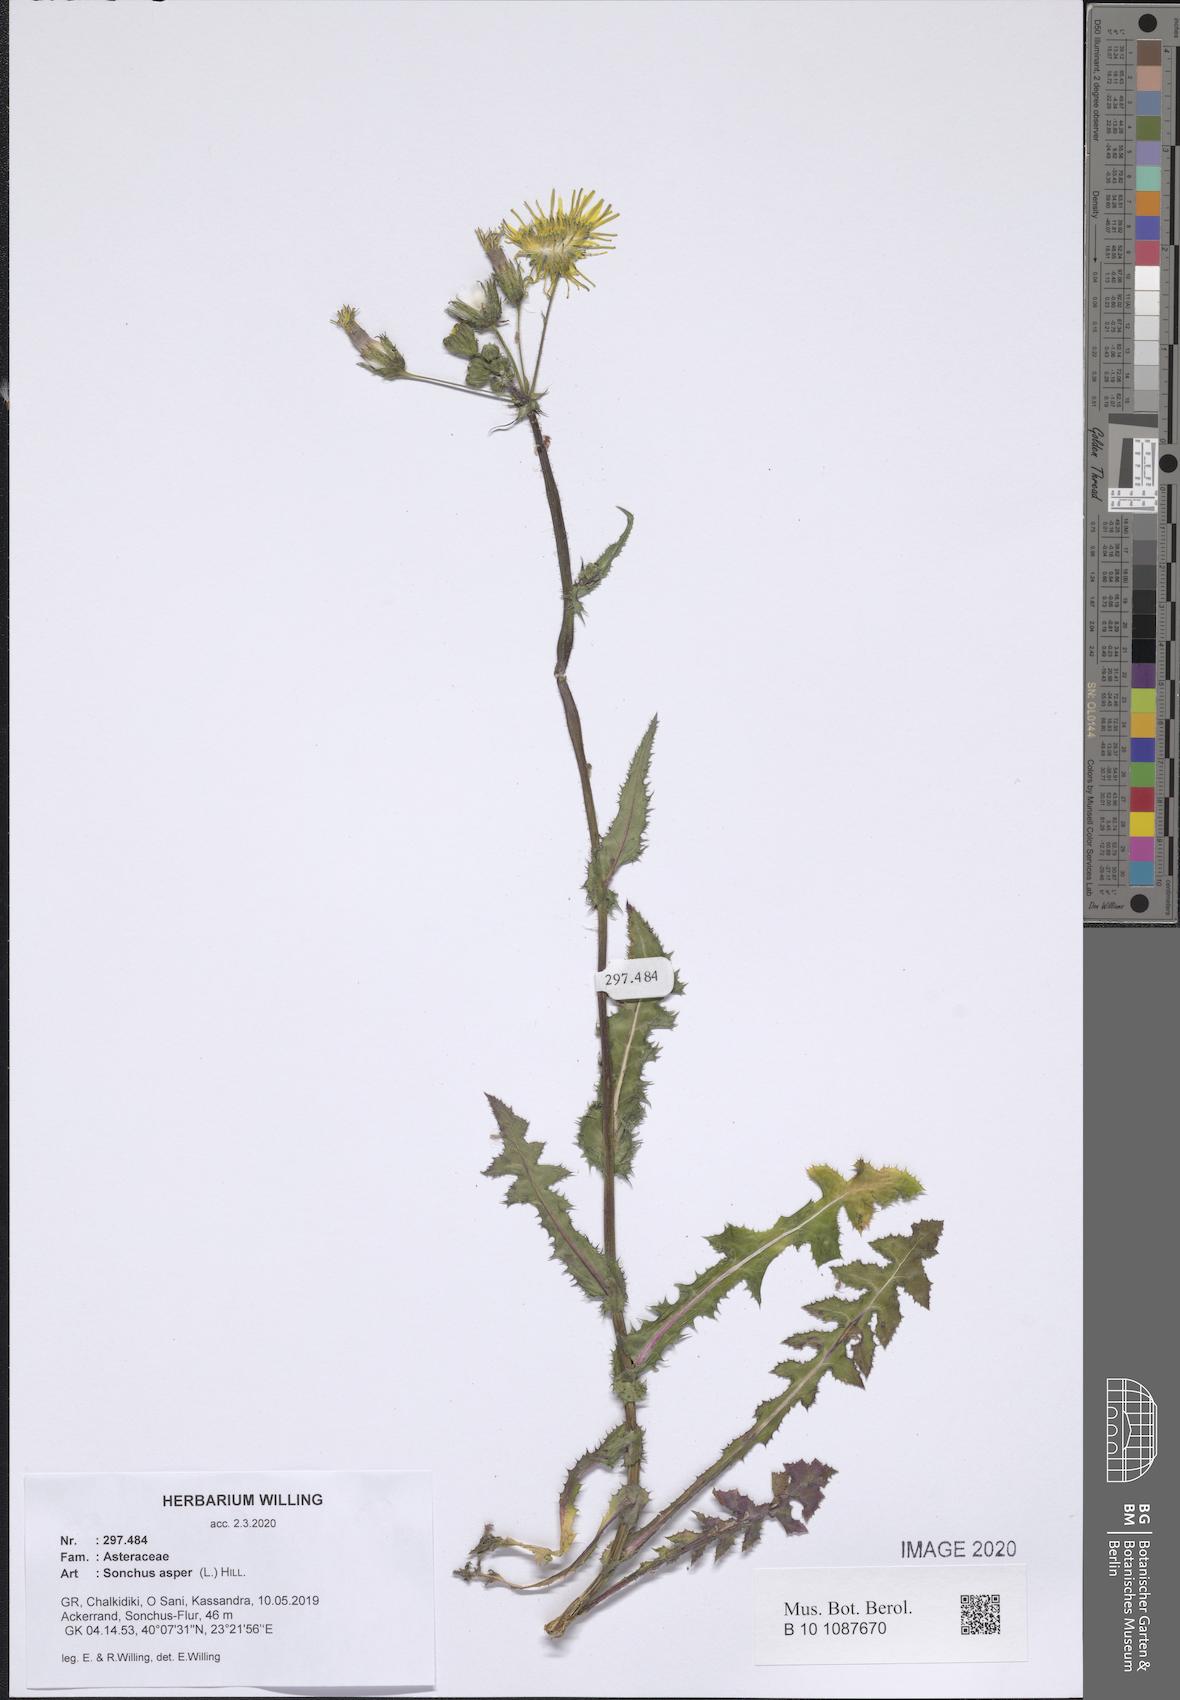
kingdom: Plantae
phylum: Tracheophyta
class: Magnoliopsida
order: Asterales
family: Asteraceae
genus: Sonchus
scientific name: Sonchus asper
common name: Prickly sow-thistle
